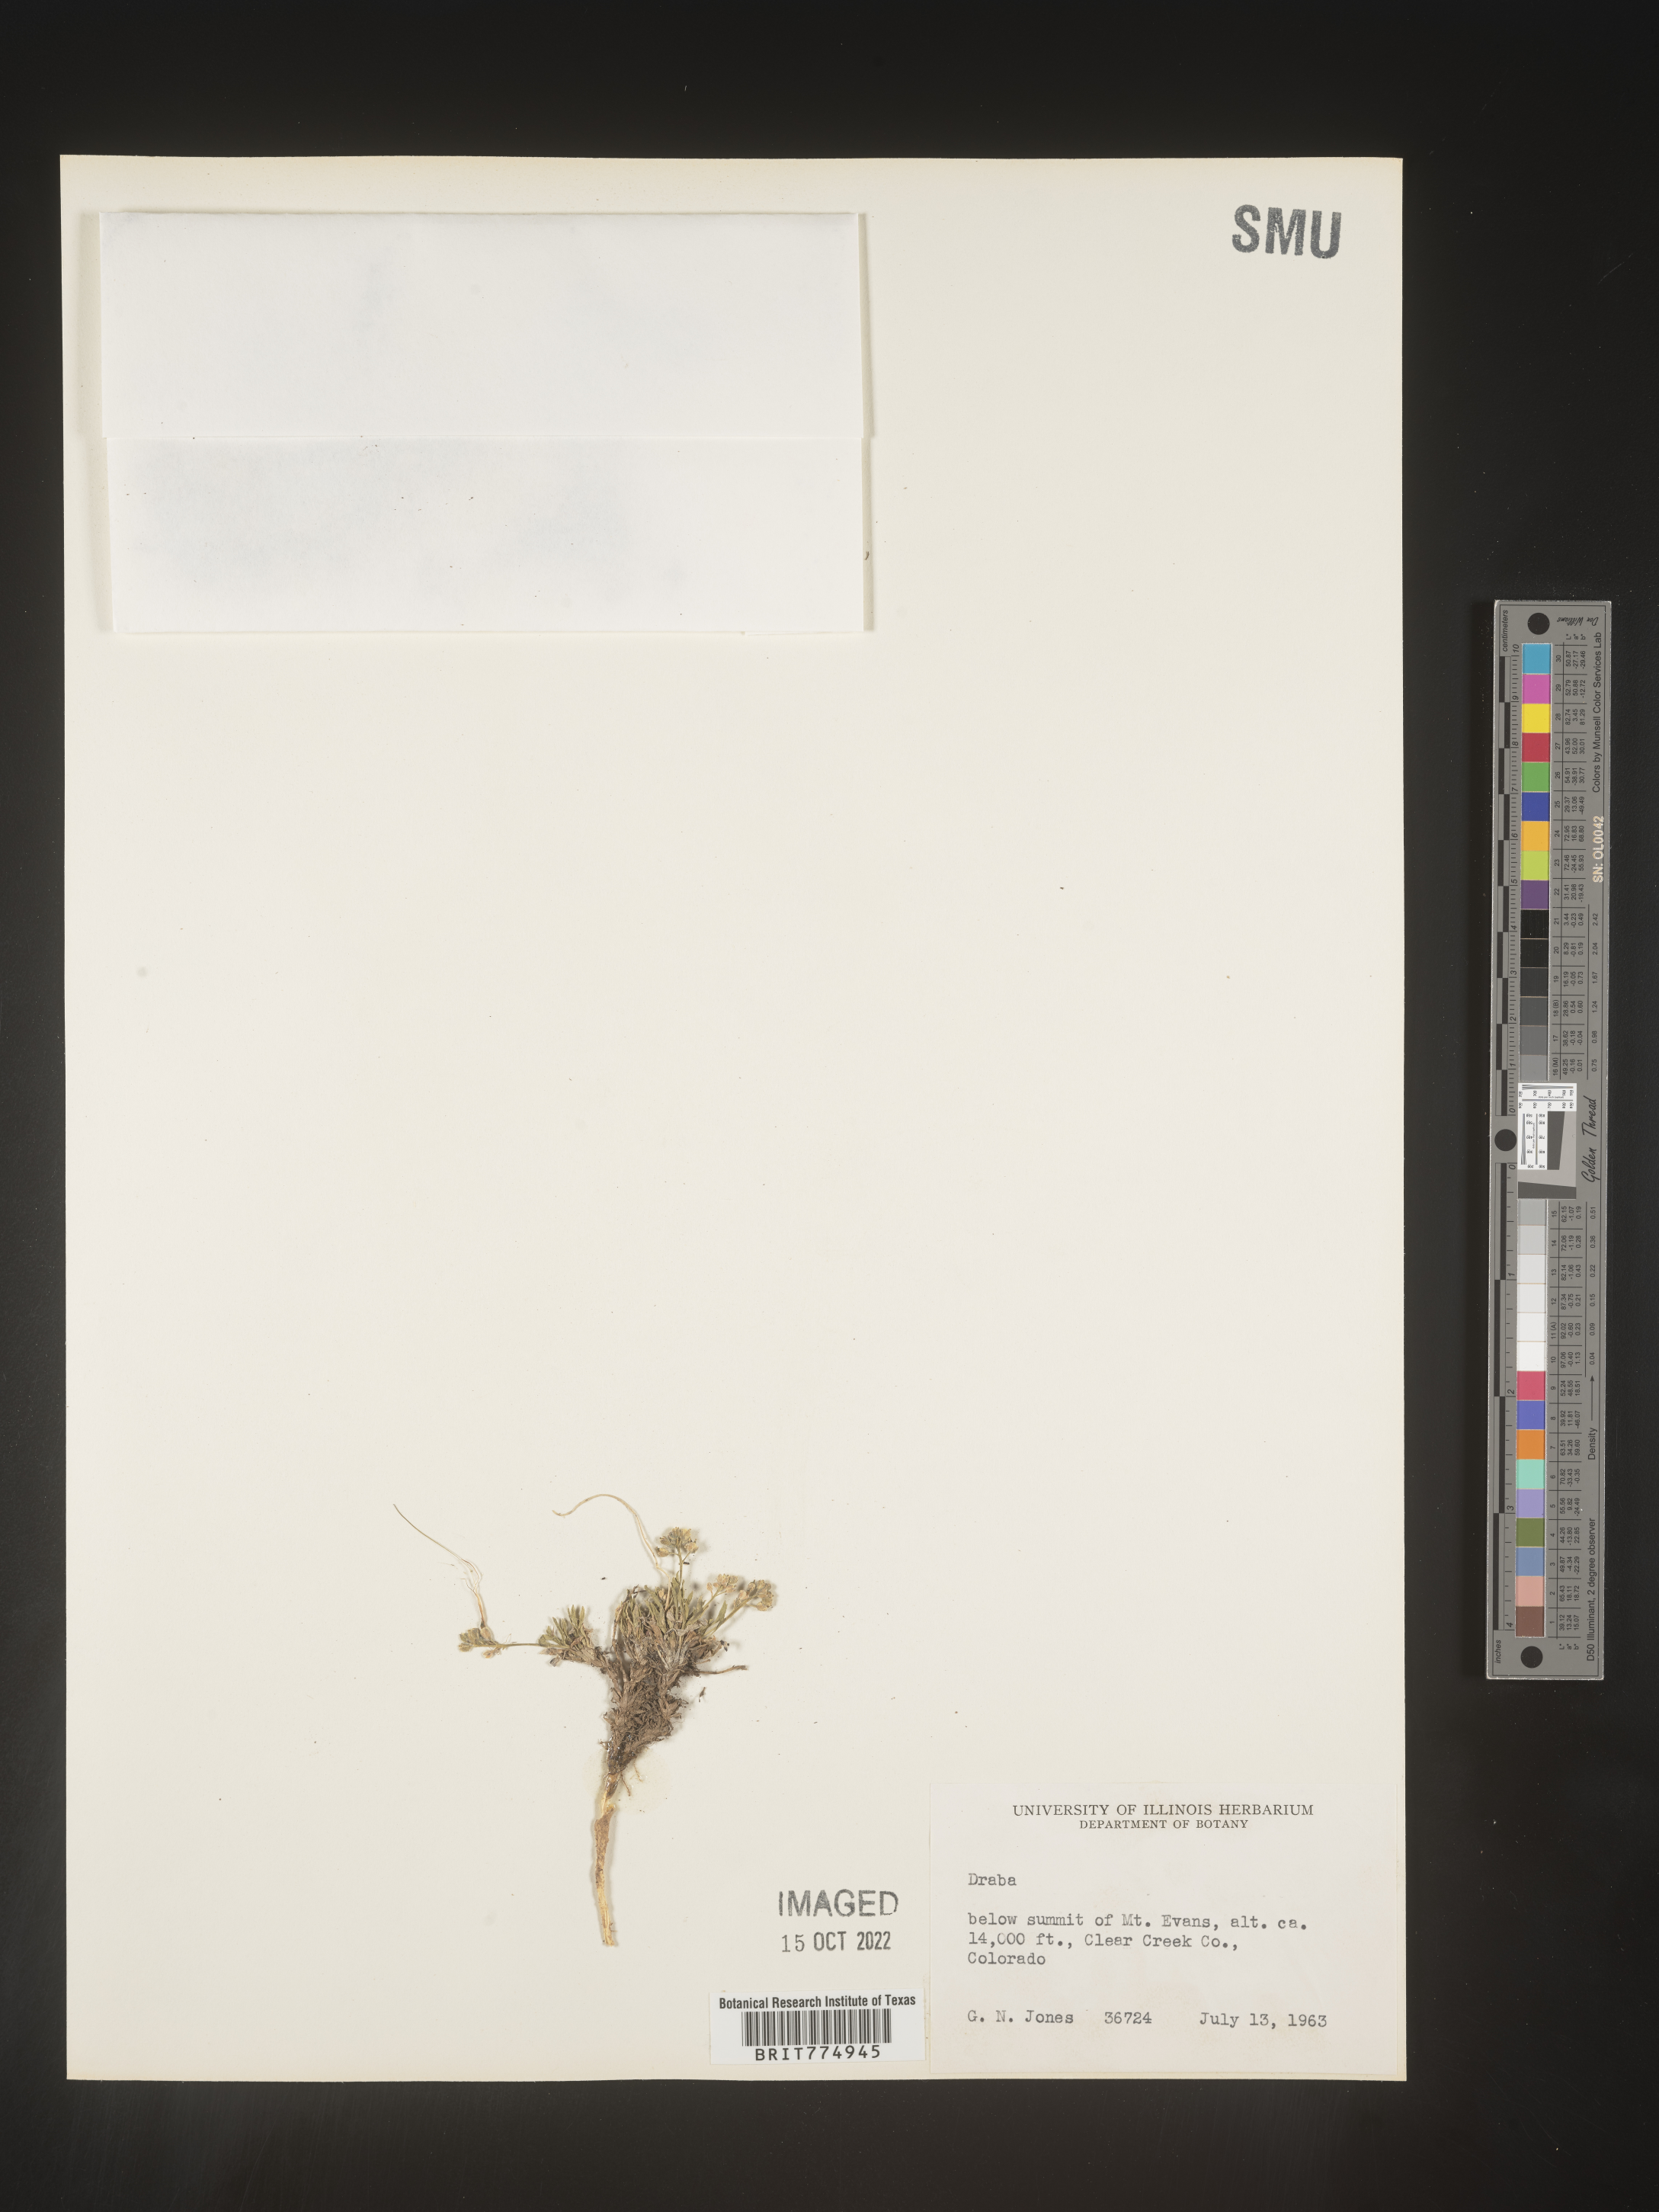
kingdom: Plantae
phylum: Tracheophyta
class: Magnoliopsida
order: Brassicales
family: Brassicaceae
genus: Draba
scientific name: Draba
